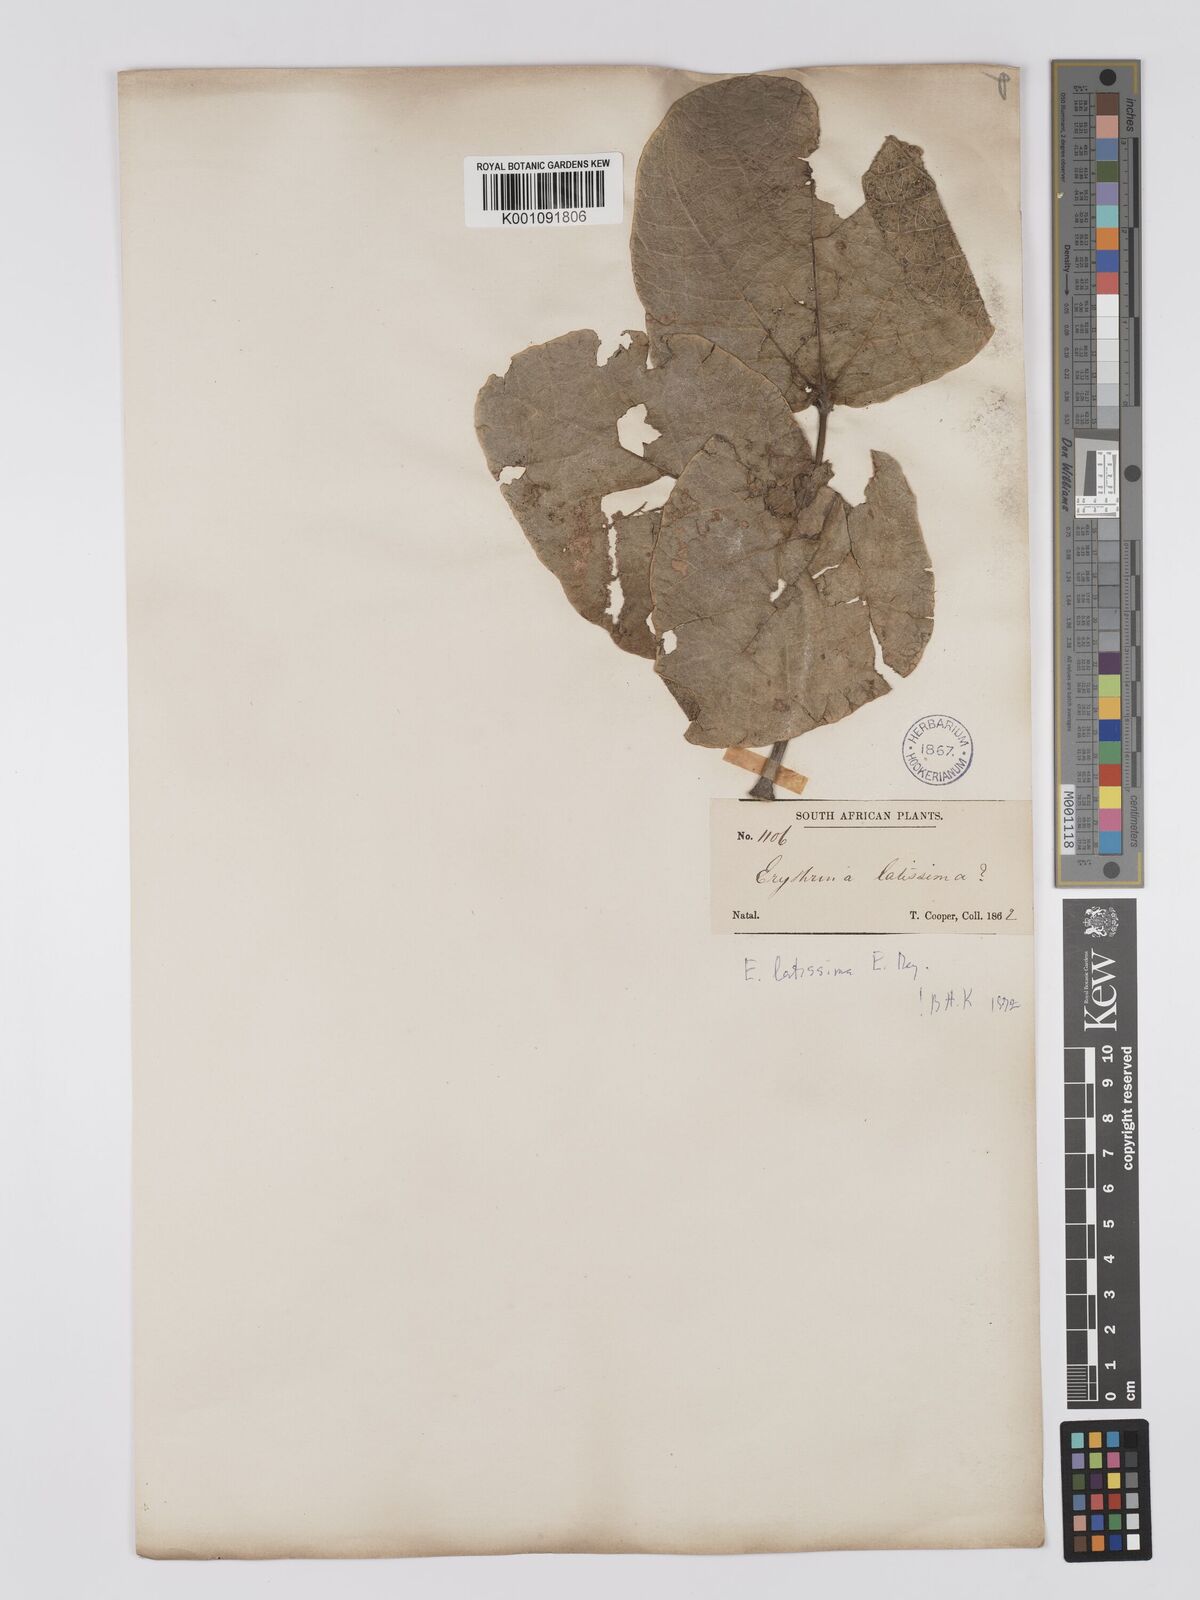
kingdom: Plantae
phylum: Tracheophyta
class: Magnoliopsida
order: Fabales
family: Fabaceae
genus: Erythrina
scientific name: Erythrina latissima
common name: Broad-leaved coral tree
